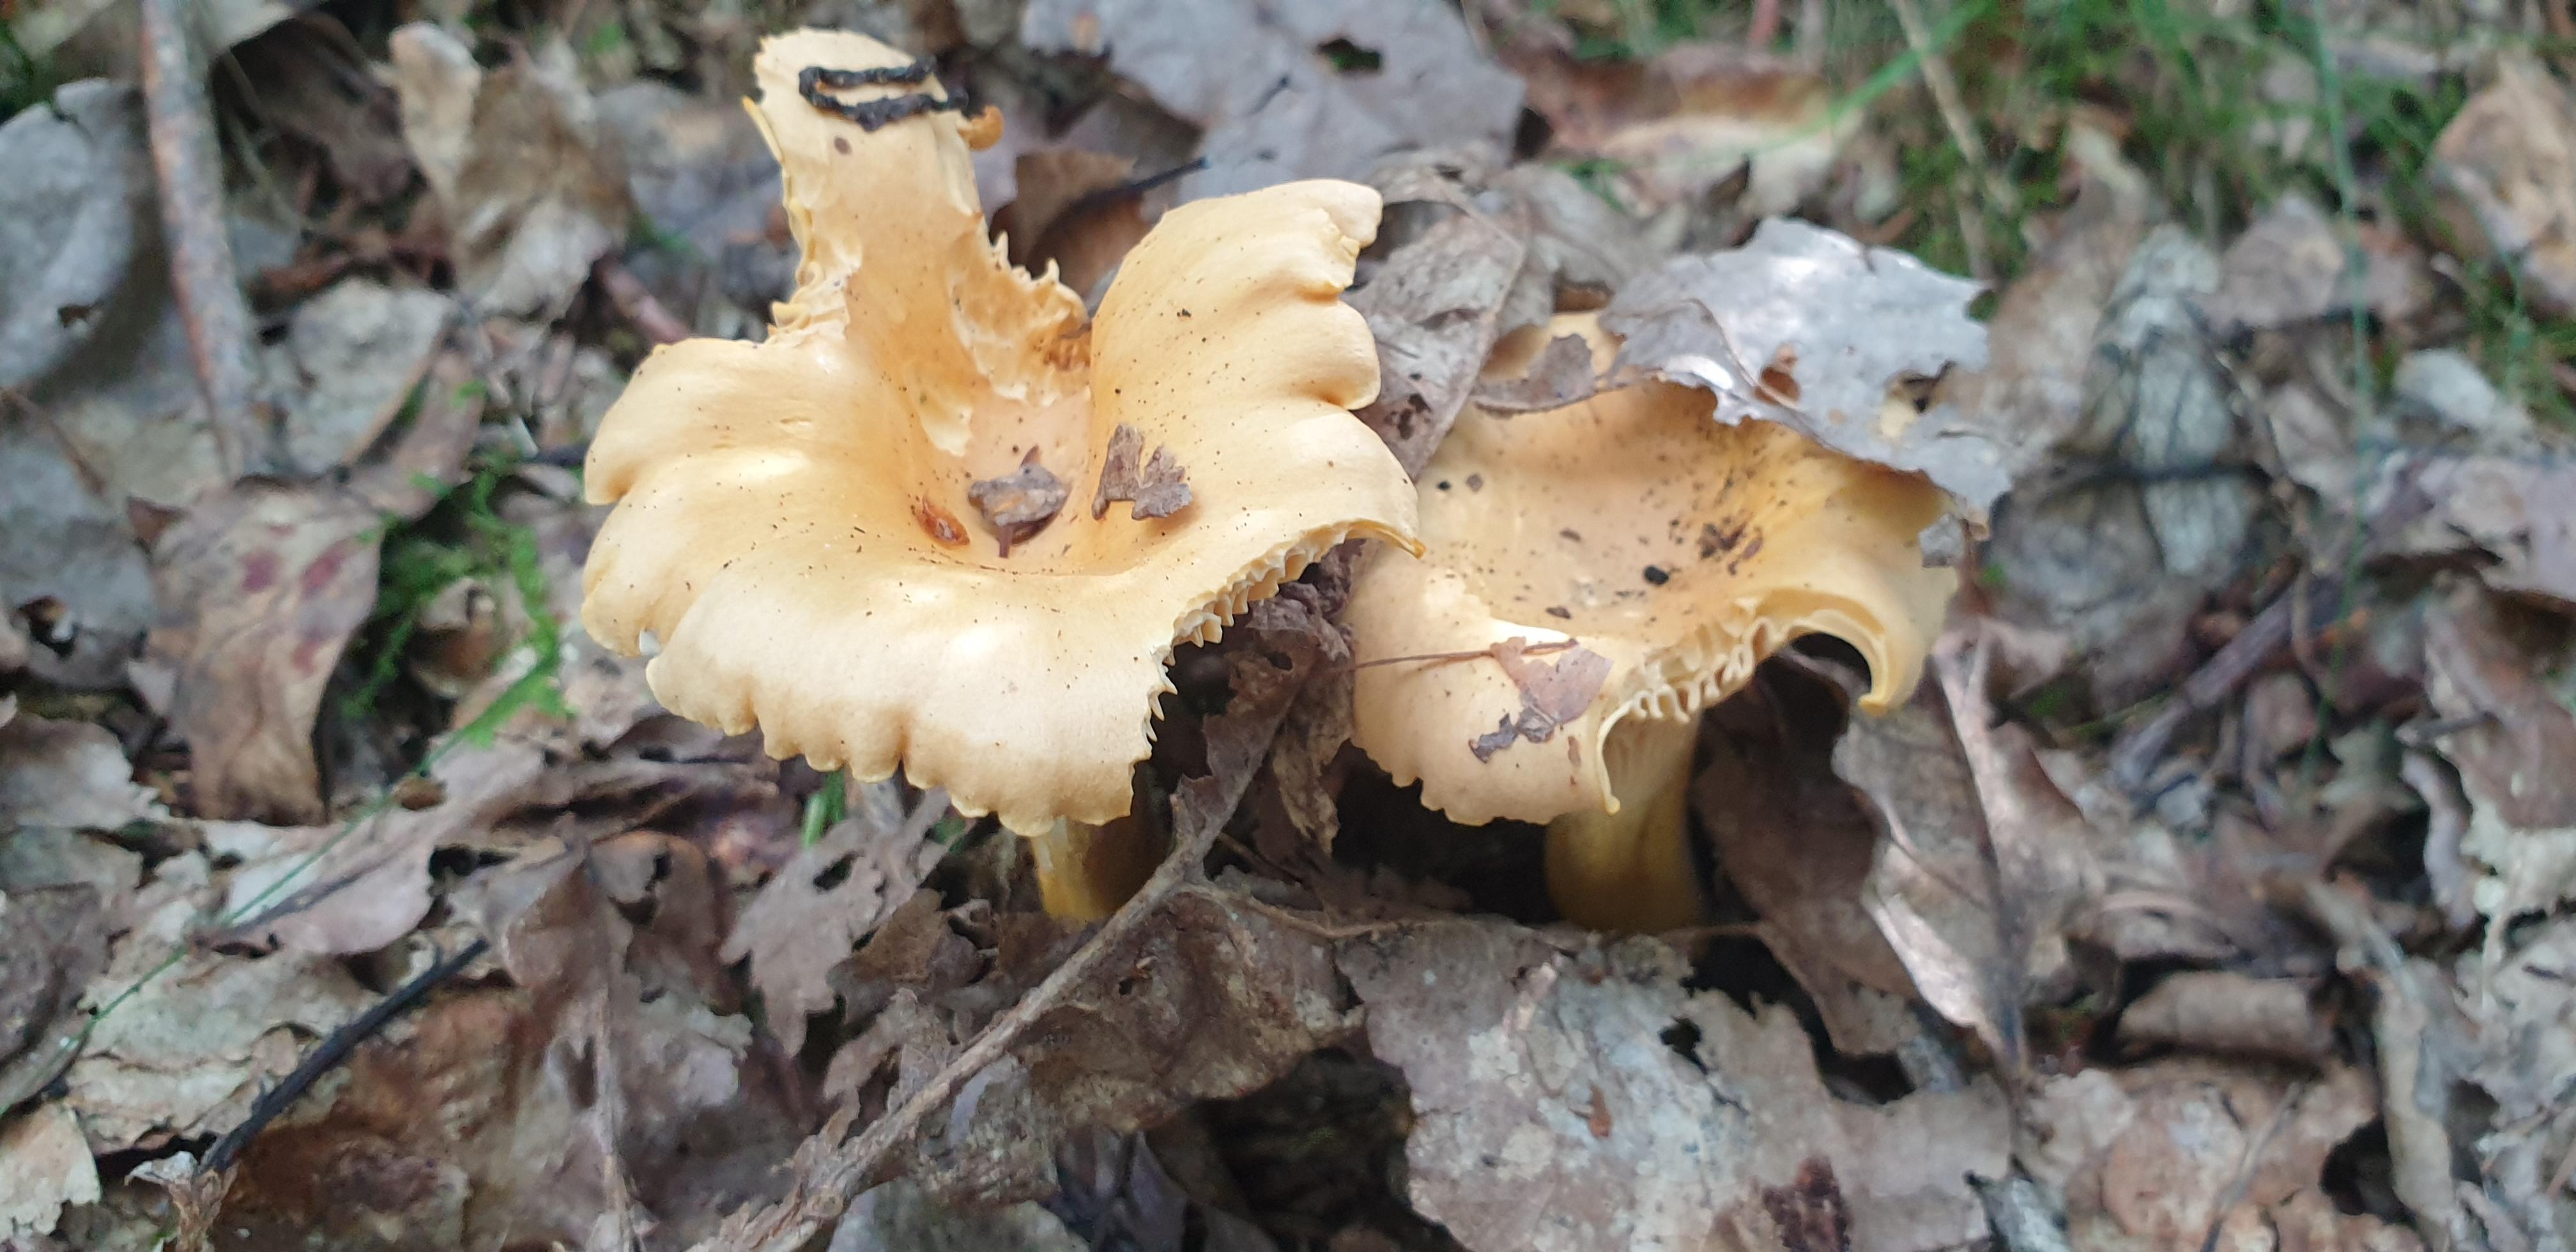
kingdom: Fungi
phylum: Basidiomycota
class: Agaricomycetes
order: Cantharellales
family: Hydnaceae
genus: Cantharellus
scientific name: Cantharellus cibarius
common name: almindelig kantarel
